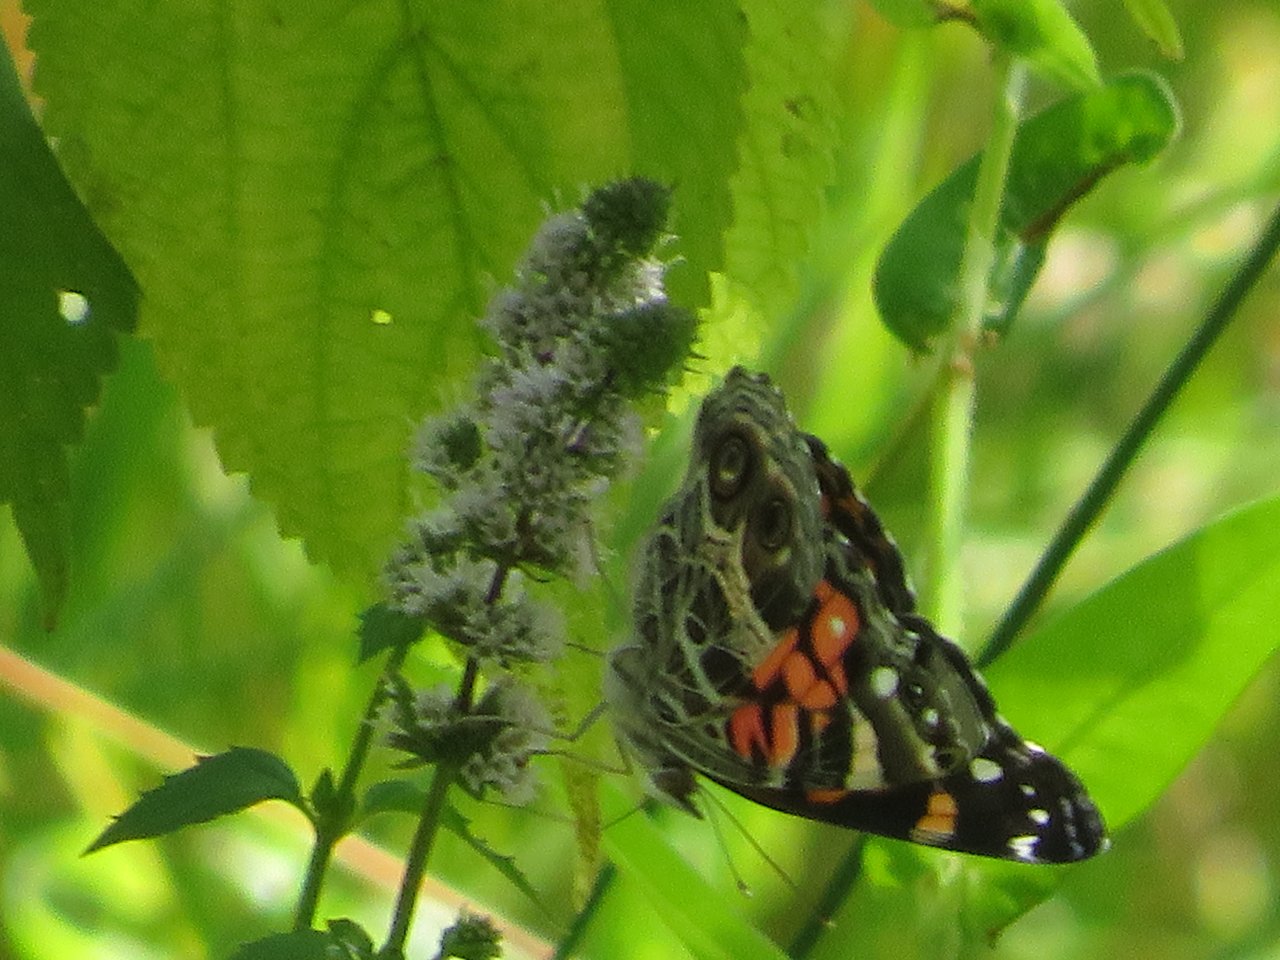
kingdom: Animalia
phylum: Arthropoda
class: Insecta
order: Lepidoptera
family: Nymphalidae
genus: Vanessa
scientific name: Vanessa virginiensis
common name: American Lady
